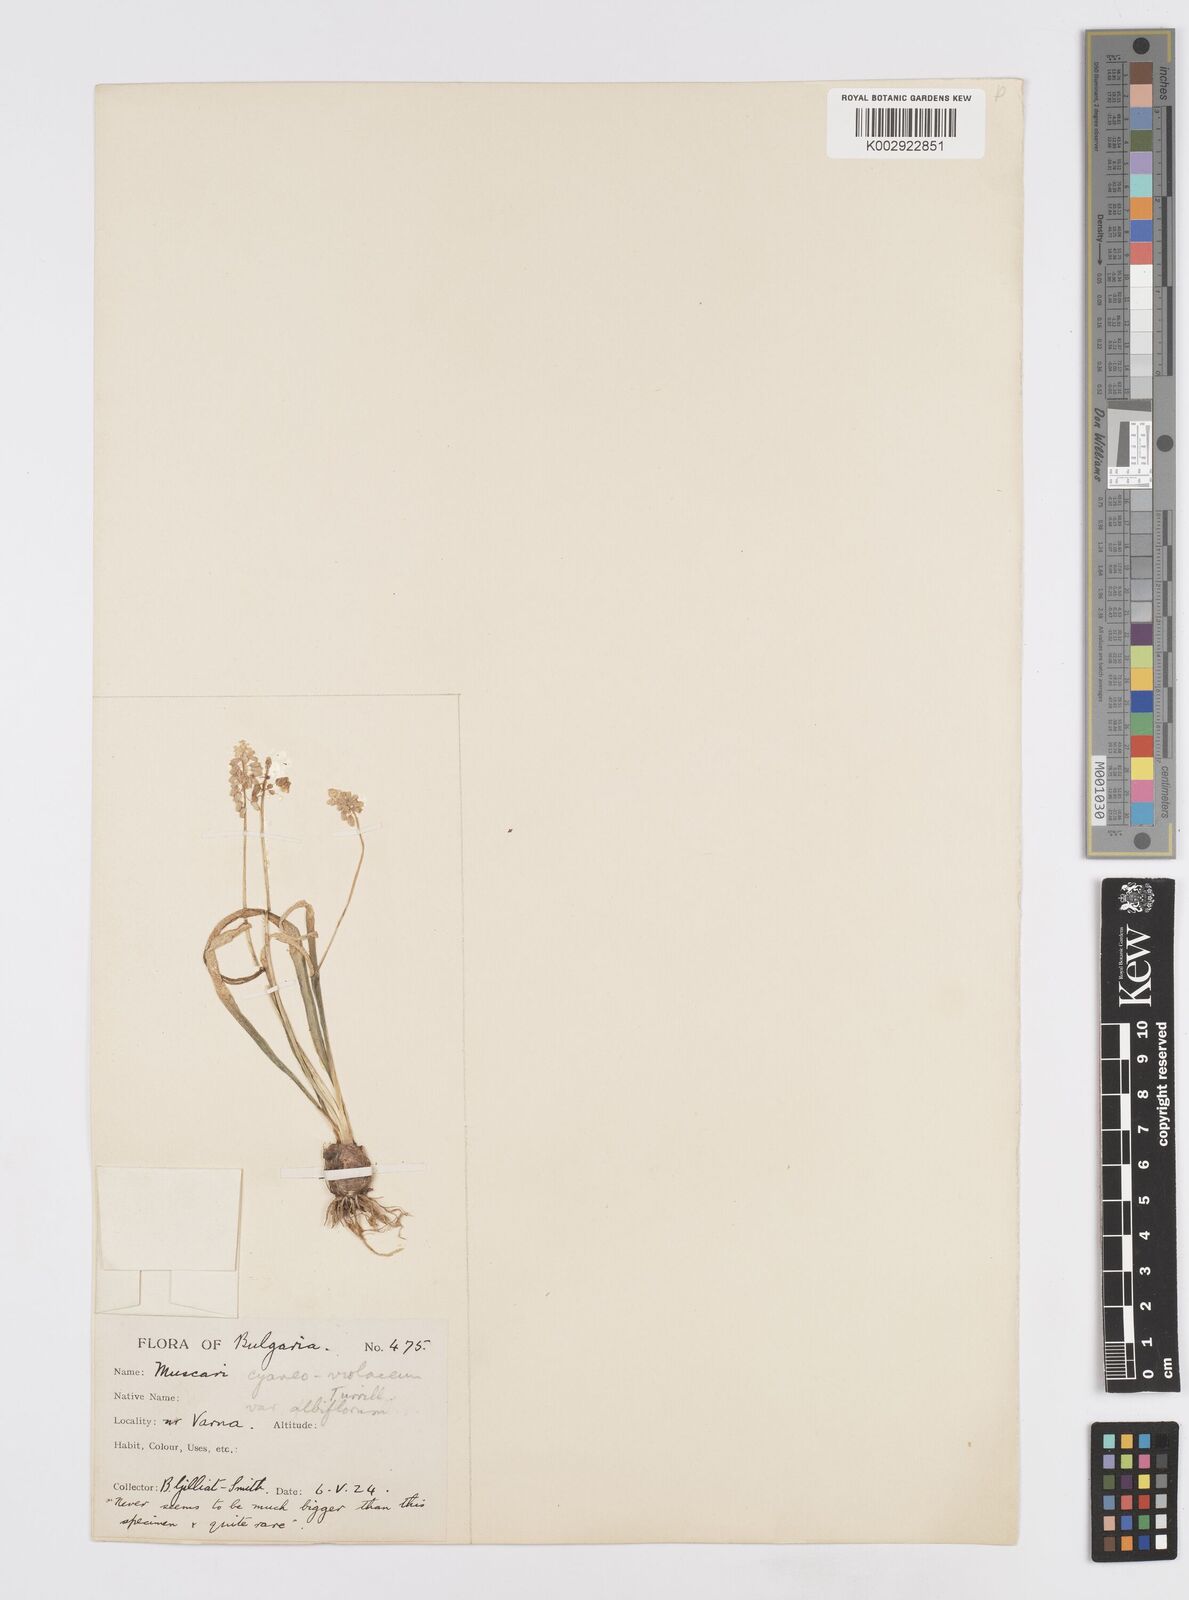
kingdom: Plantae
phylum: Tracheophyta
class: Liliopsida
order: Asparagales
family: Asparagaceae
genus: Muscari
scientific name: Muscari armeniacum
